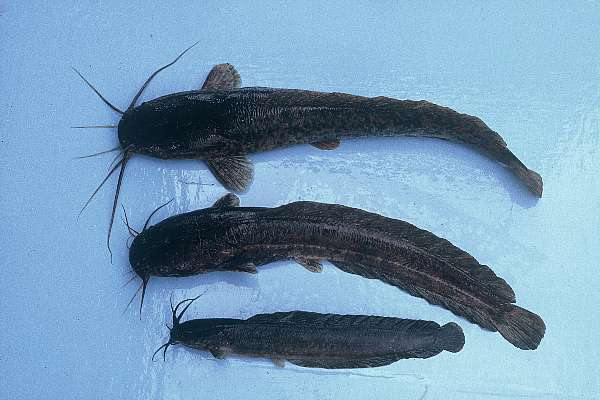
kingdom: Animalia
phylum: Chordata
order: Siluriformes
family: Clariidae
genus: Clarias
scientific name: Clarias gariepinus
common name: African catfish
